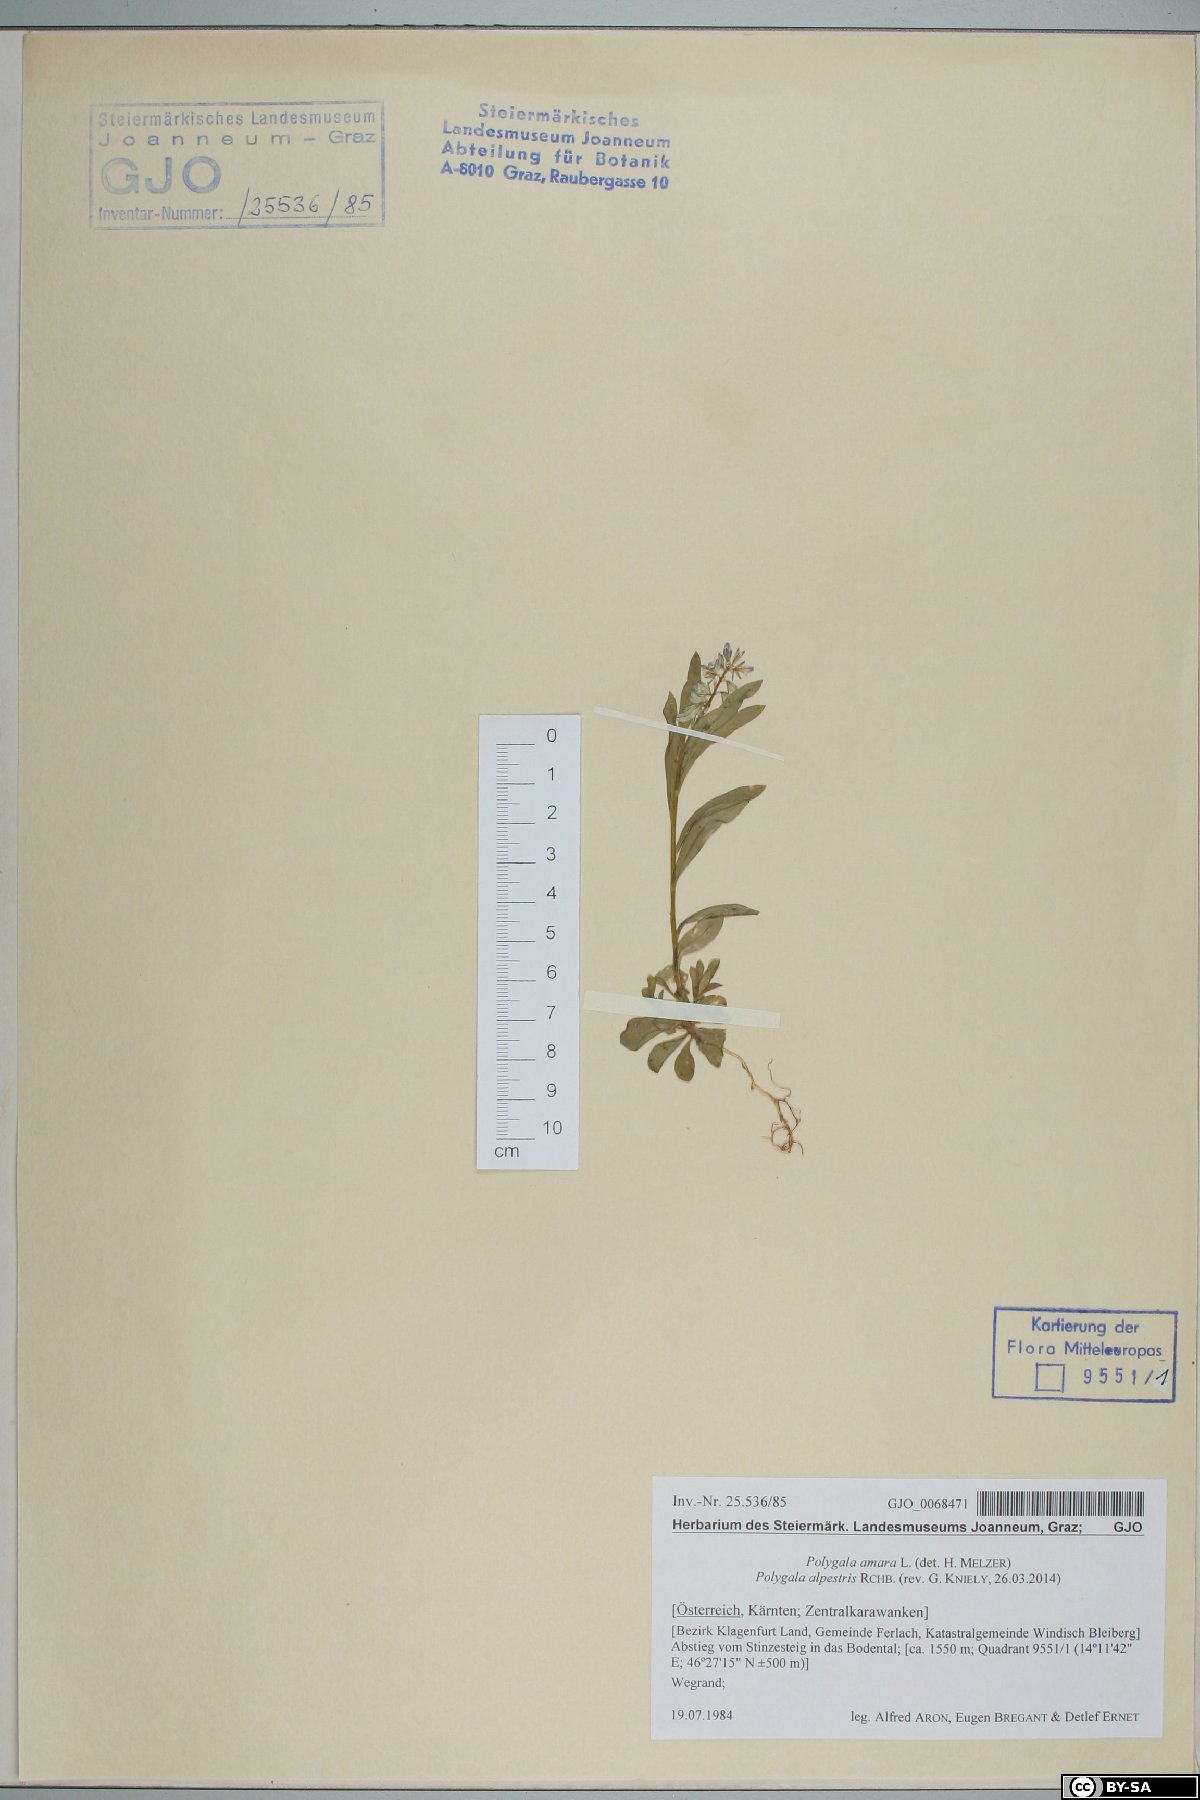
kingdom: Plantae
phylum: Tracheophyta
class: Magnoliopsida
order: Fabales
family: Polygalaceae
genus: Polygala
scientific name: Polygala alpestris
